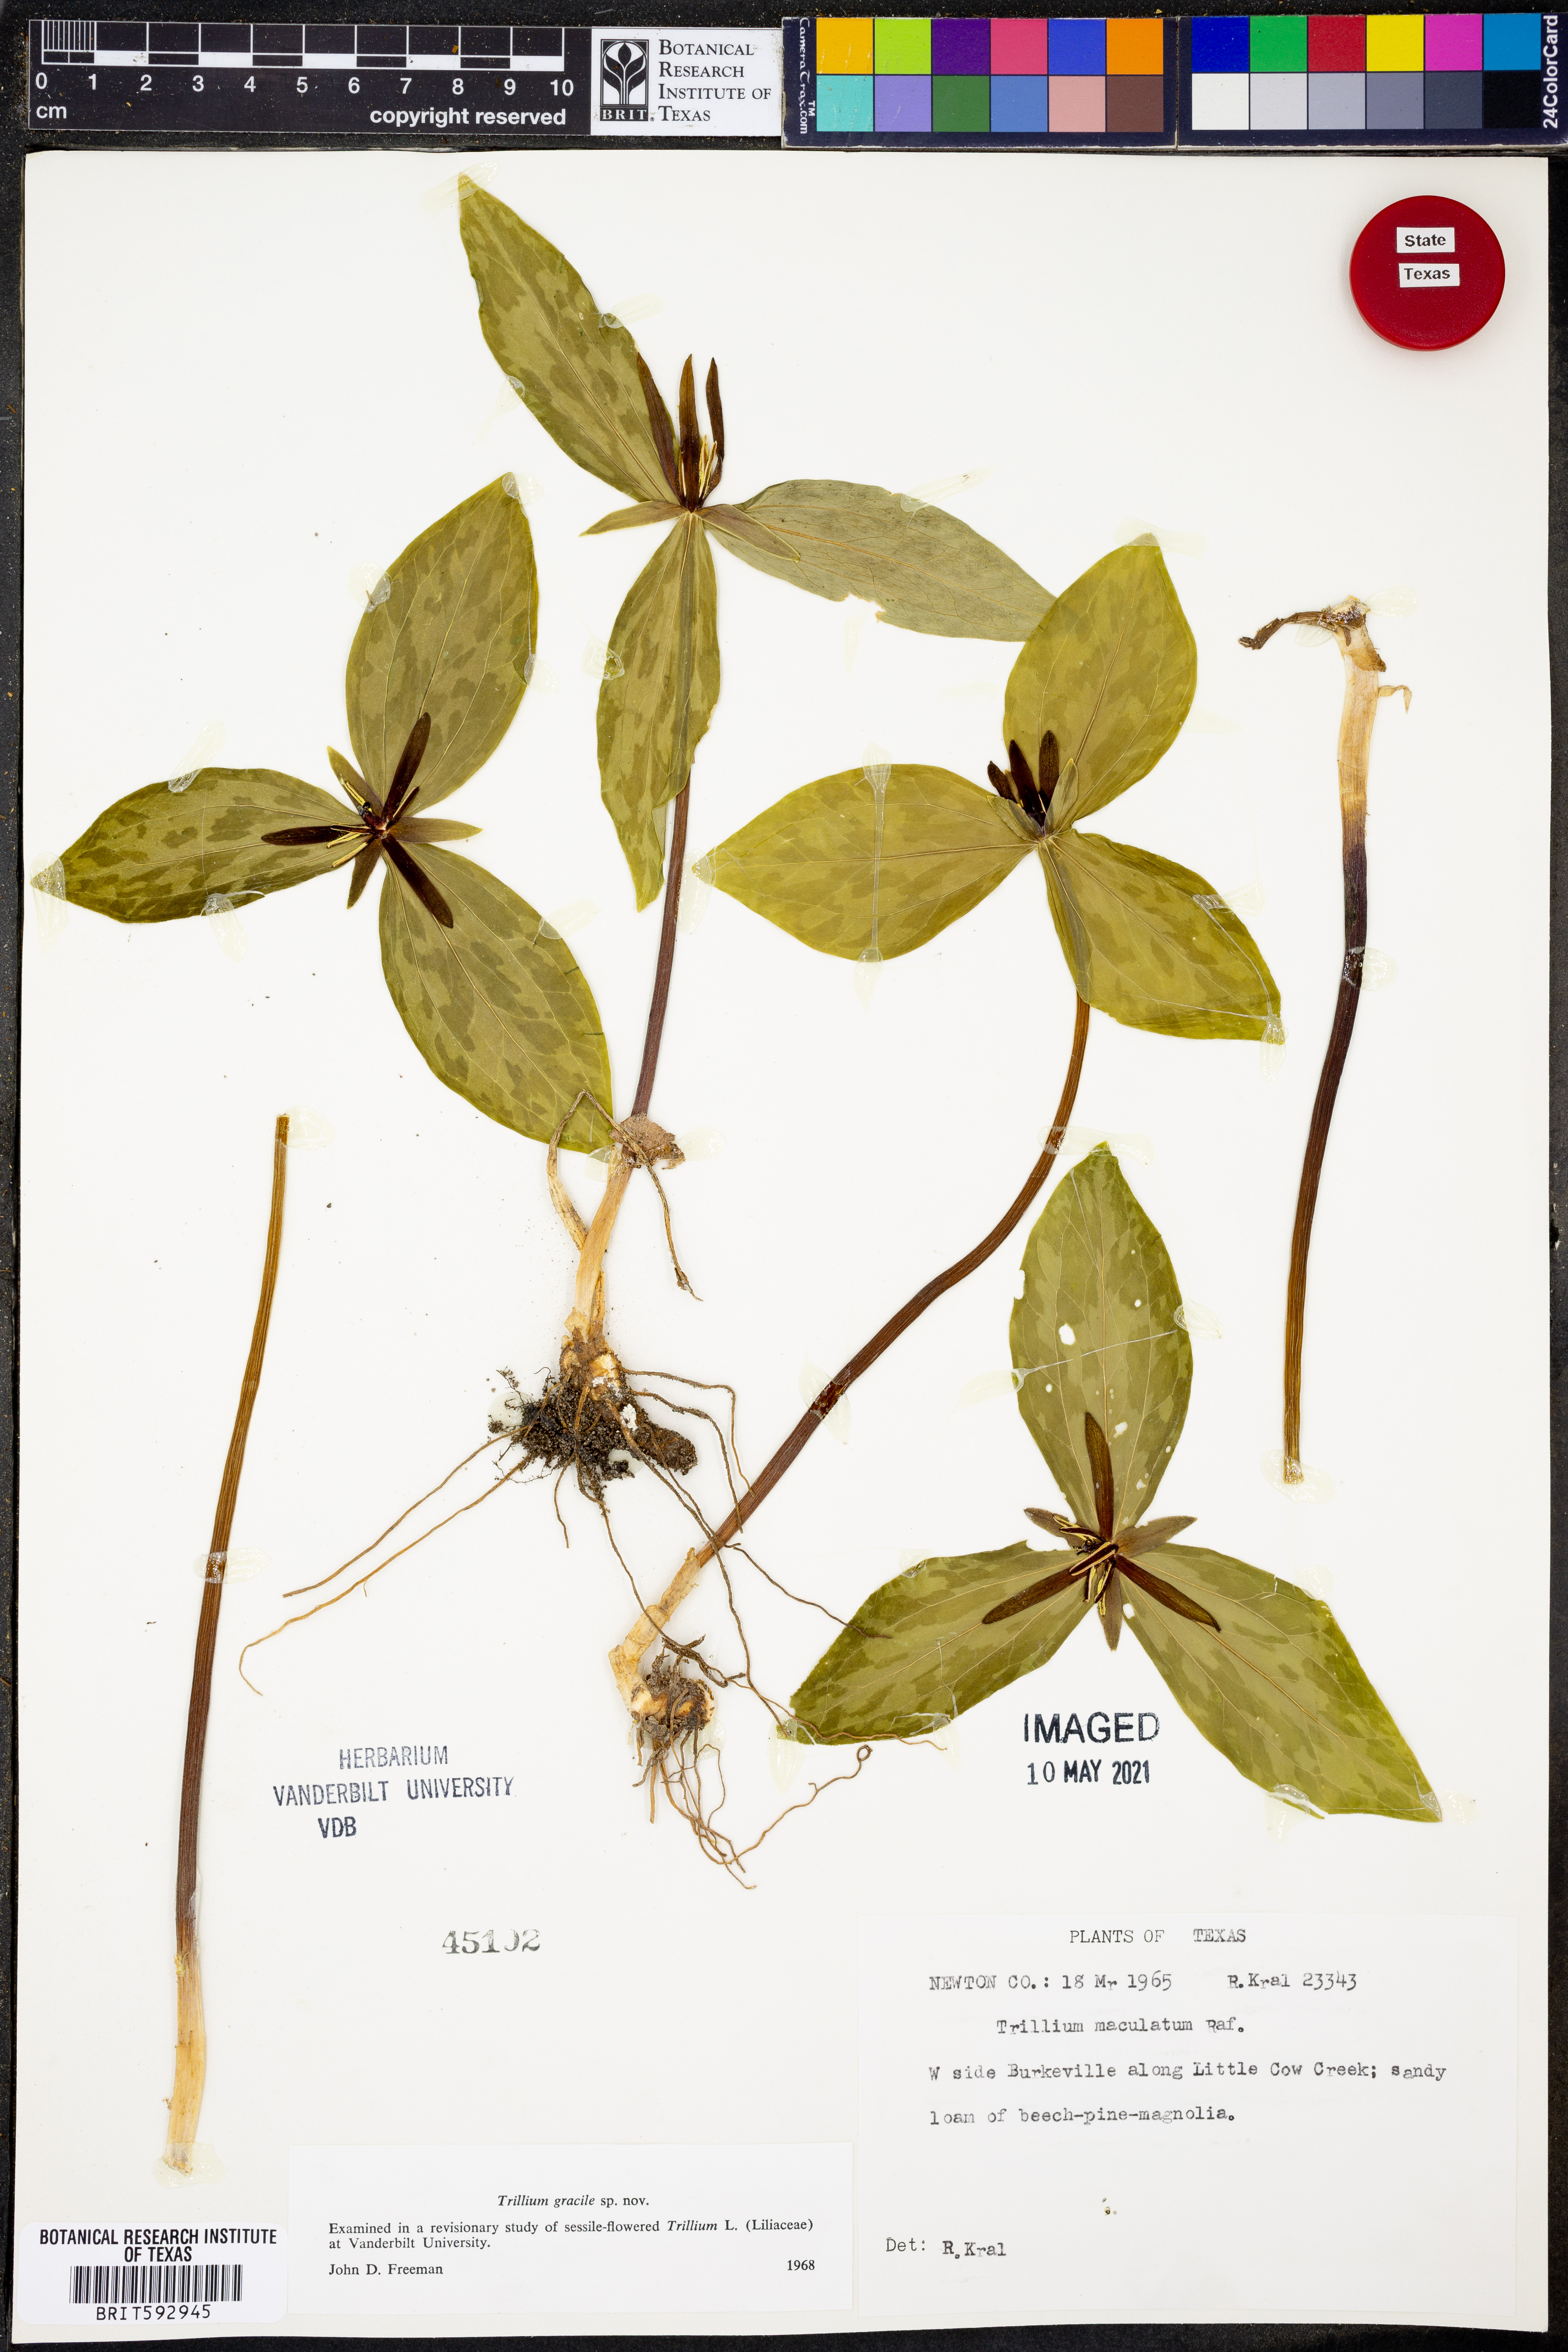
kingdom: Plantae
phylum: Tracheophyta
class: Liliopsida
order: Liliales
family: Melanthiaceae
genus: Trillium
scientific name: Trillium gracile
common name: Graceful trillium
